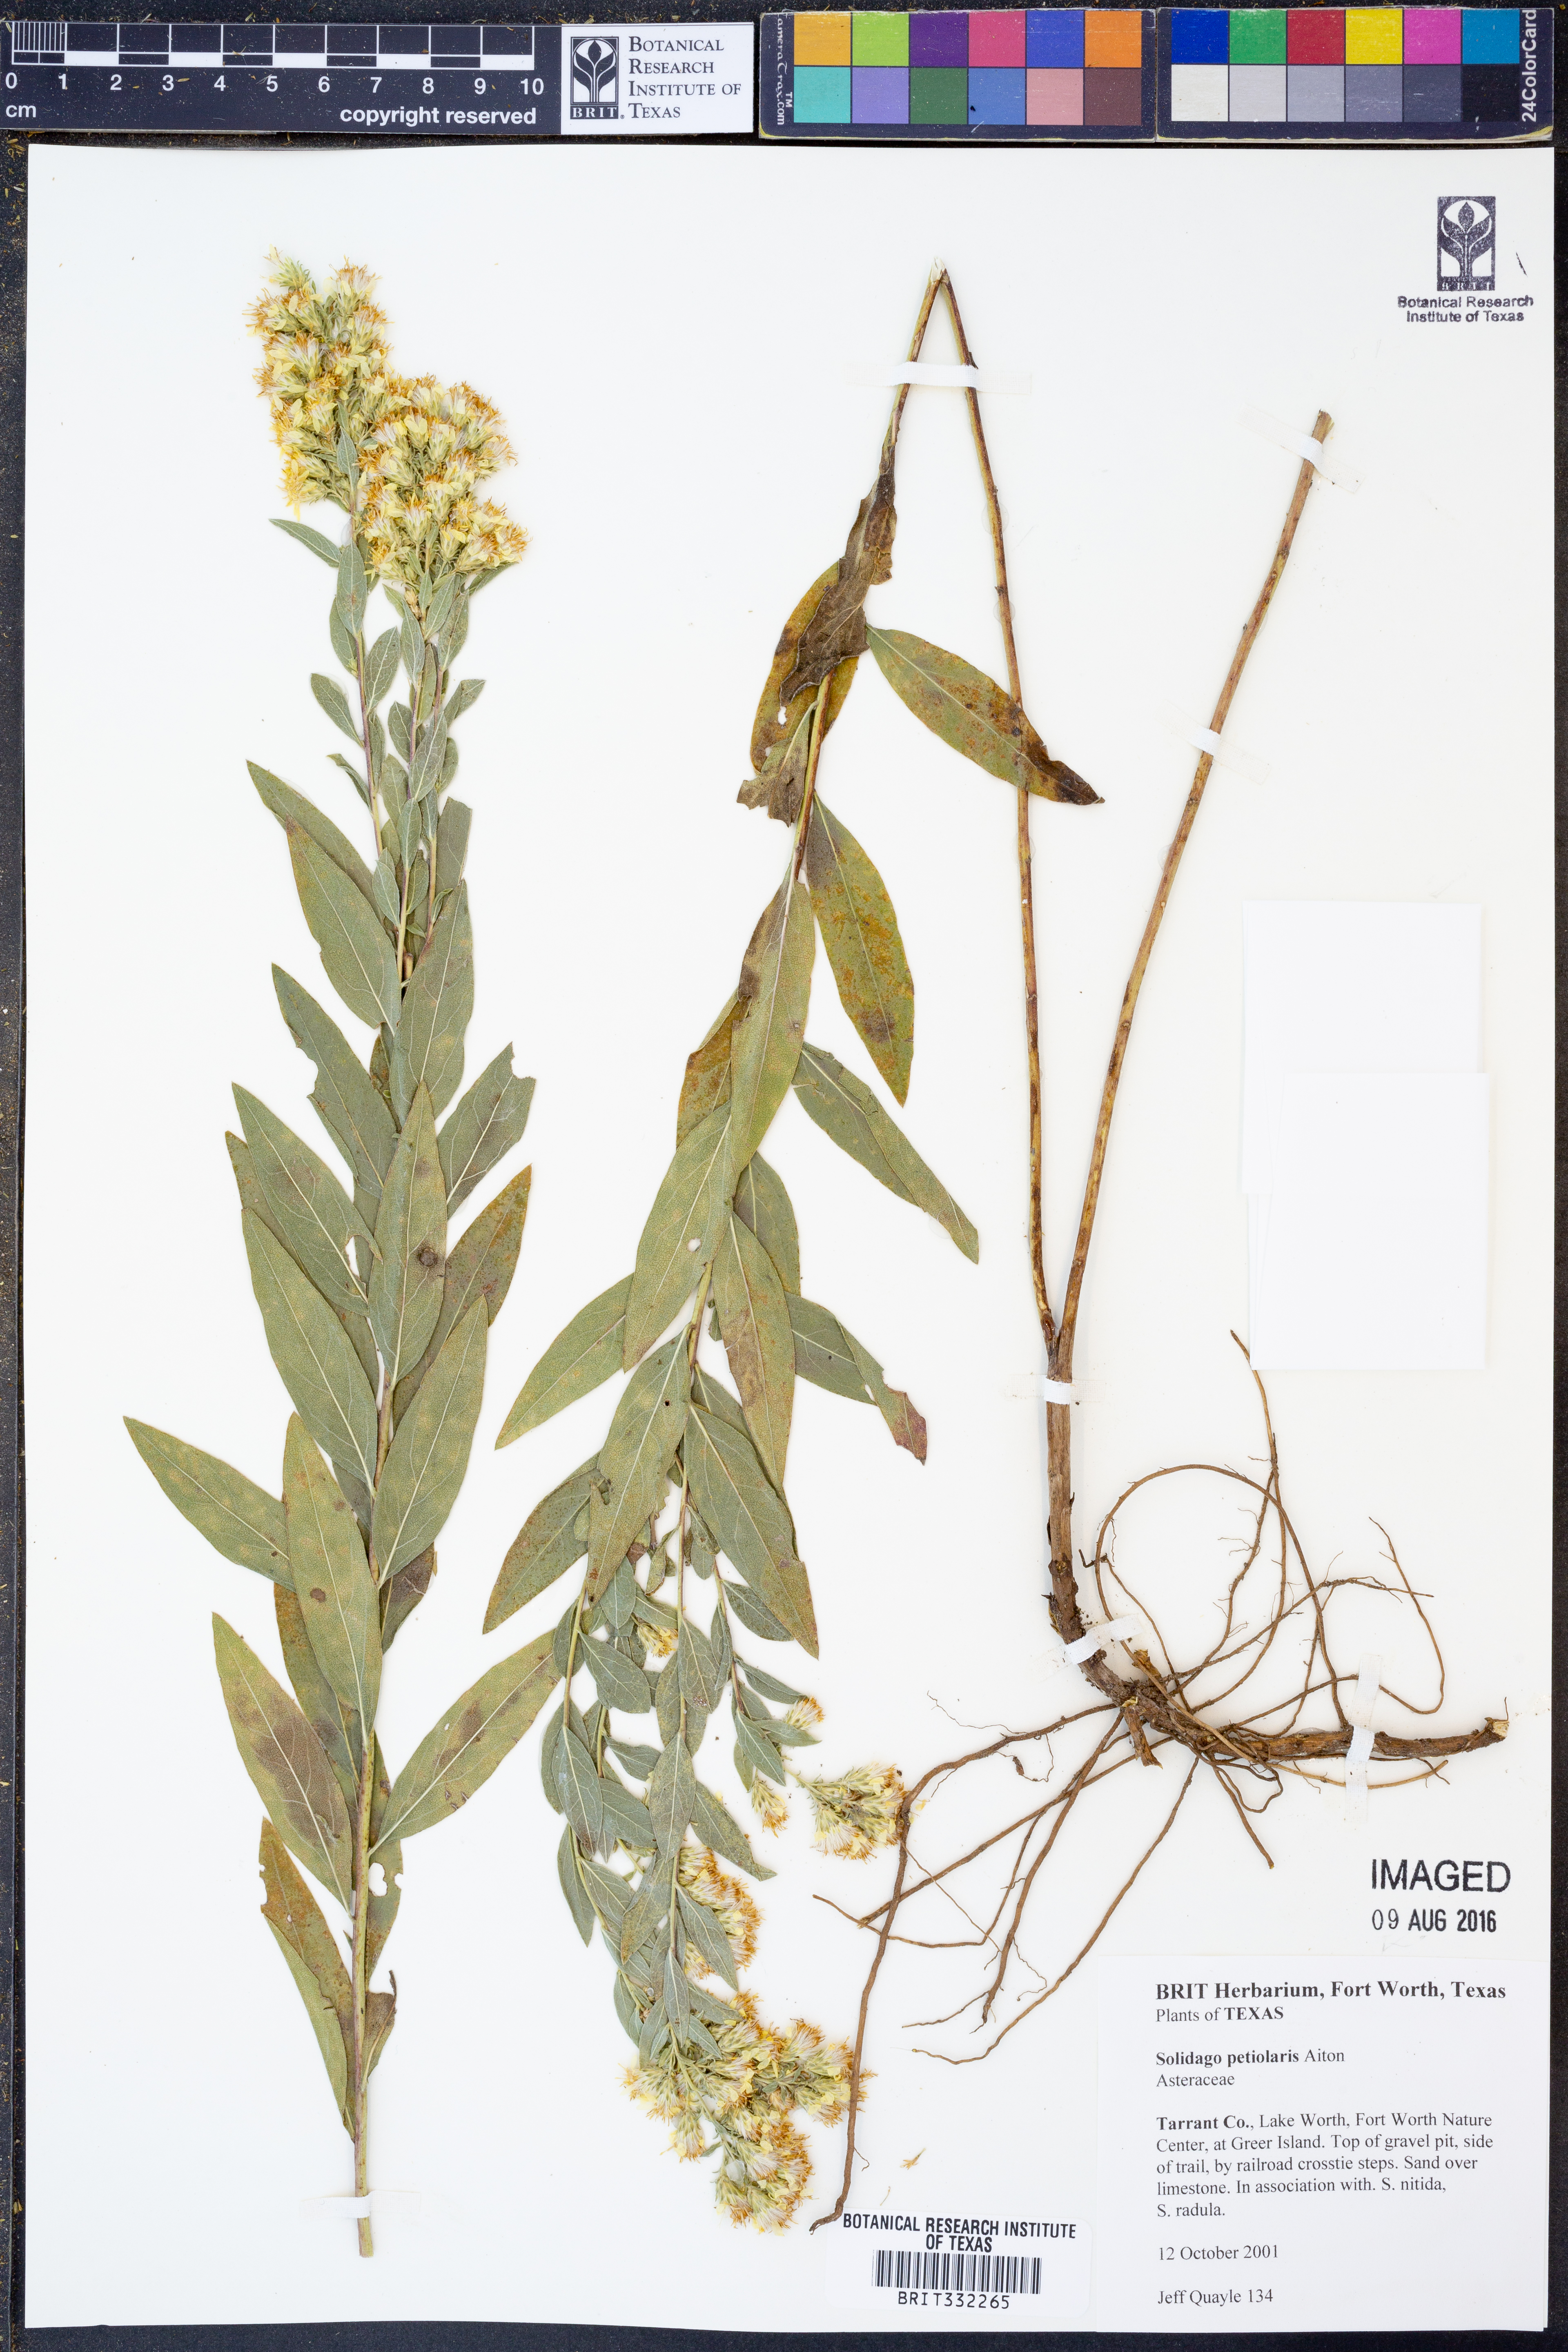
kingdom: Plantae
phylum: Tracheophyta
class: Magnoliopsida
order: Asterales
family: Asteraceae
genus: Solidago
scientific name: Solidago petiolaris
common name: Downy ragged goldenrod
